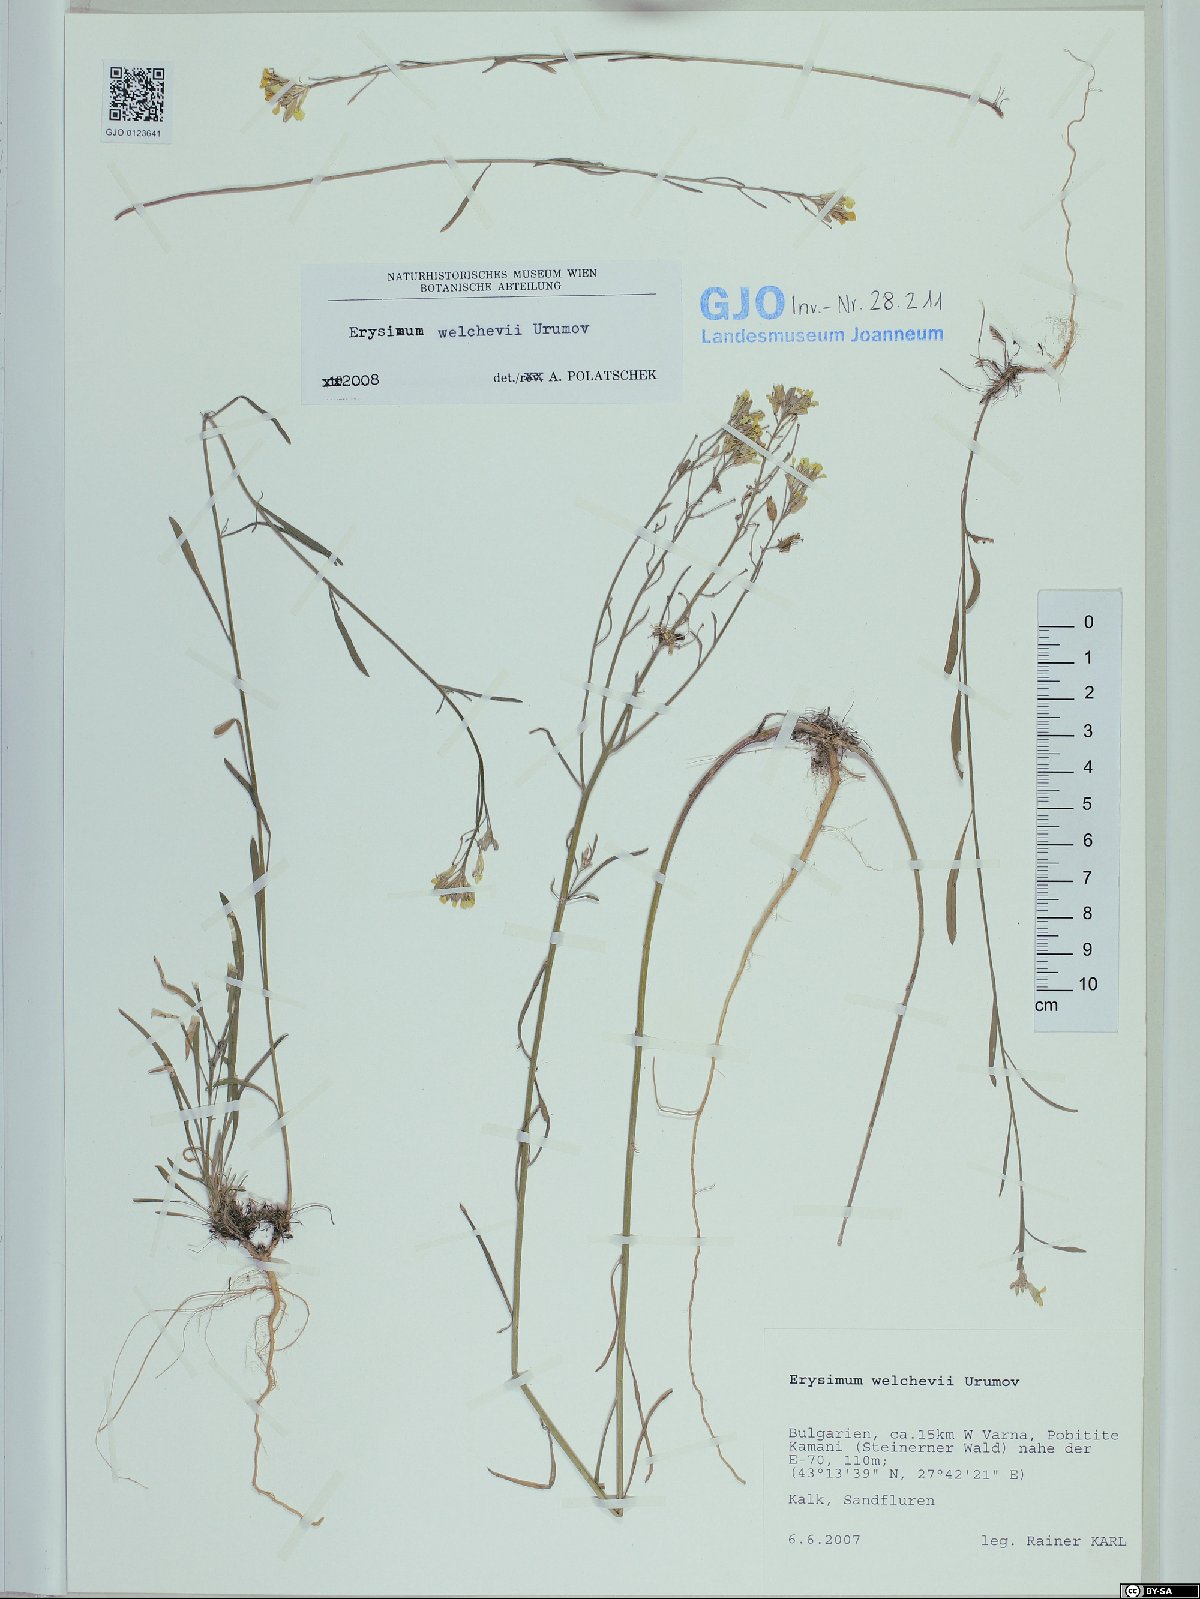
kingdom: Plantae
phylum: Tracheophyta
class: Magnoliopsida
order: Brassicales
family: Brassicaceae
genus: Erysimum
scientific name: Erysimum welcevii
